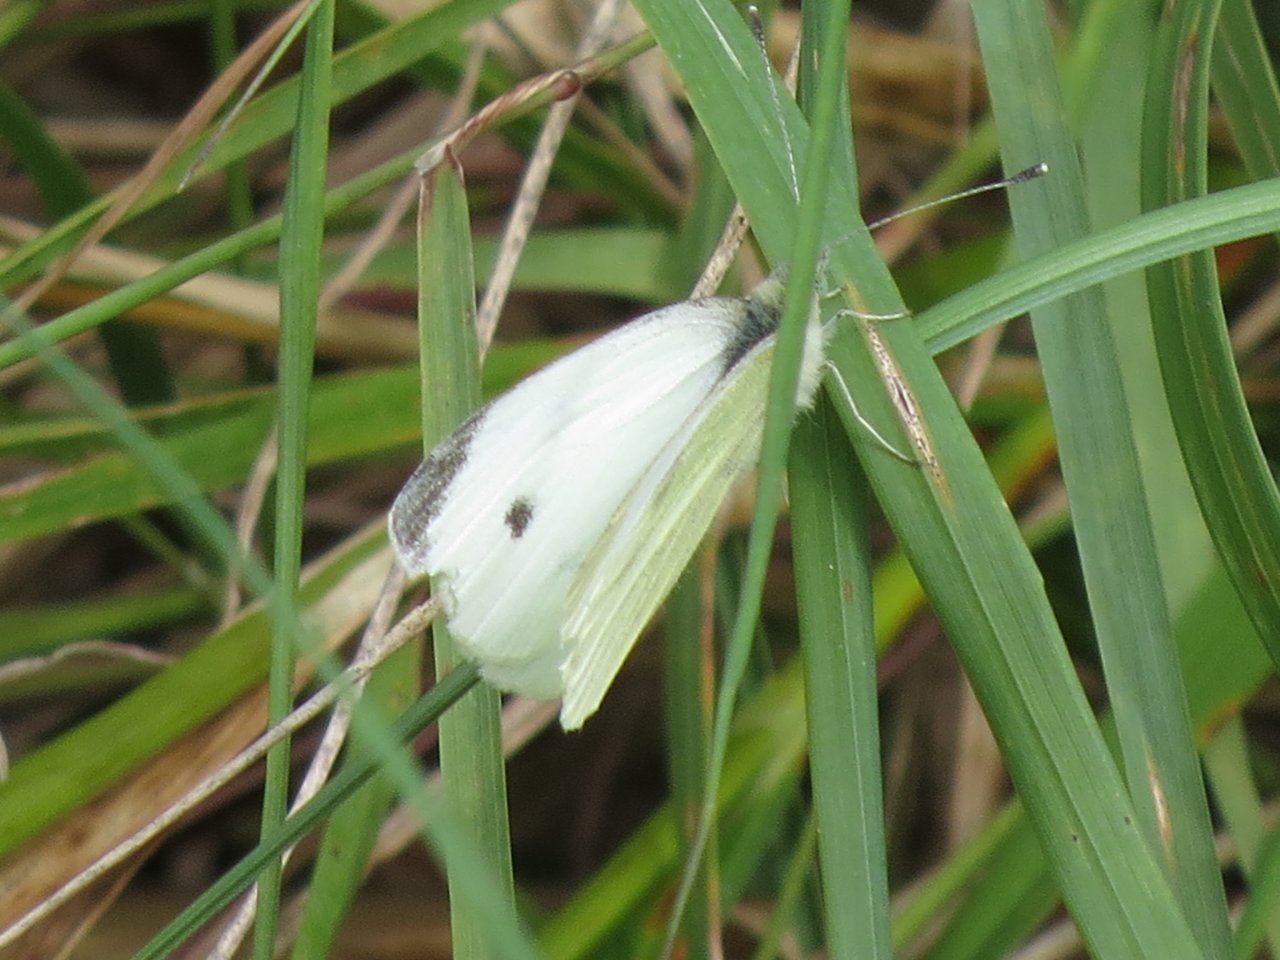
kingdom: Animalia
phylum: Arthropoda
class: Insecta
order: Lepidoptera
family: Pieridae
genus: Pieris
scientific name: Pieris rapae
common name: Cabbage White
